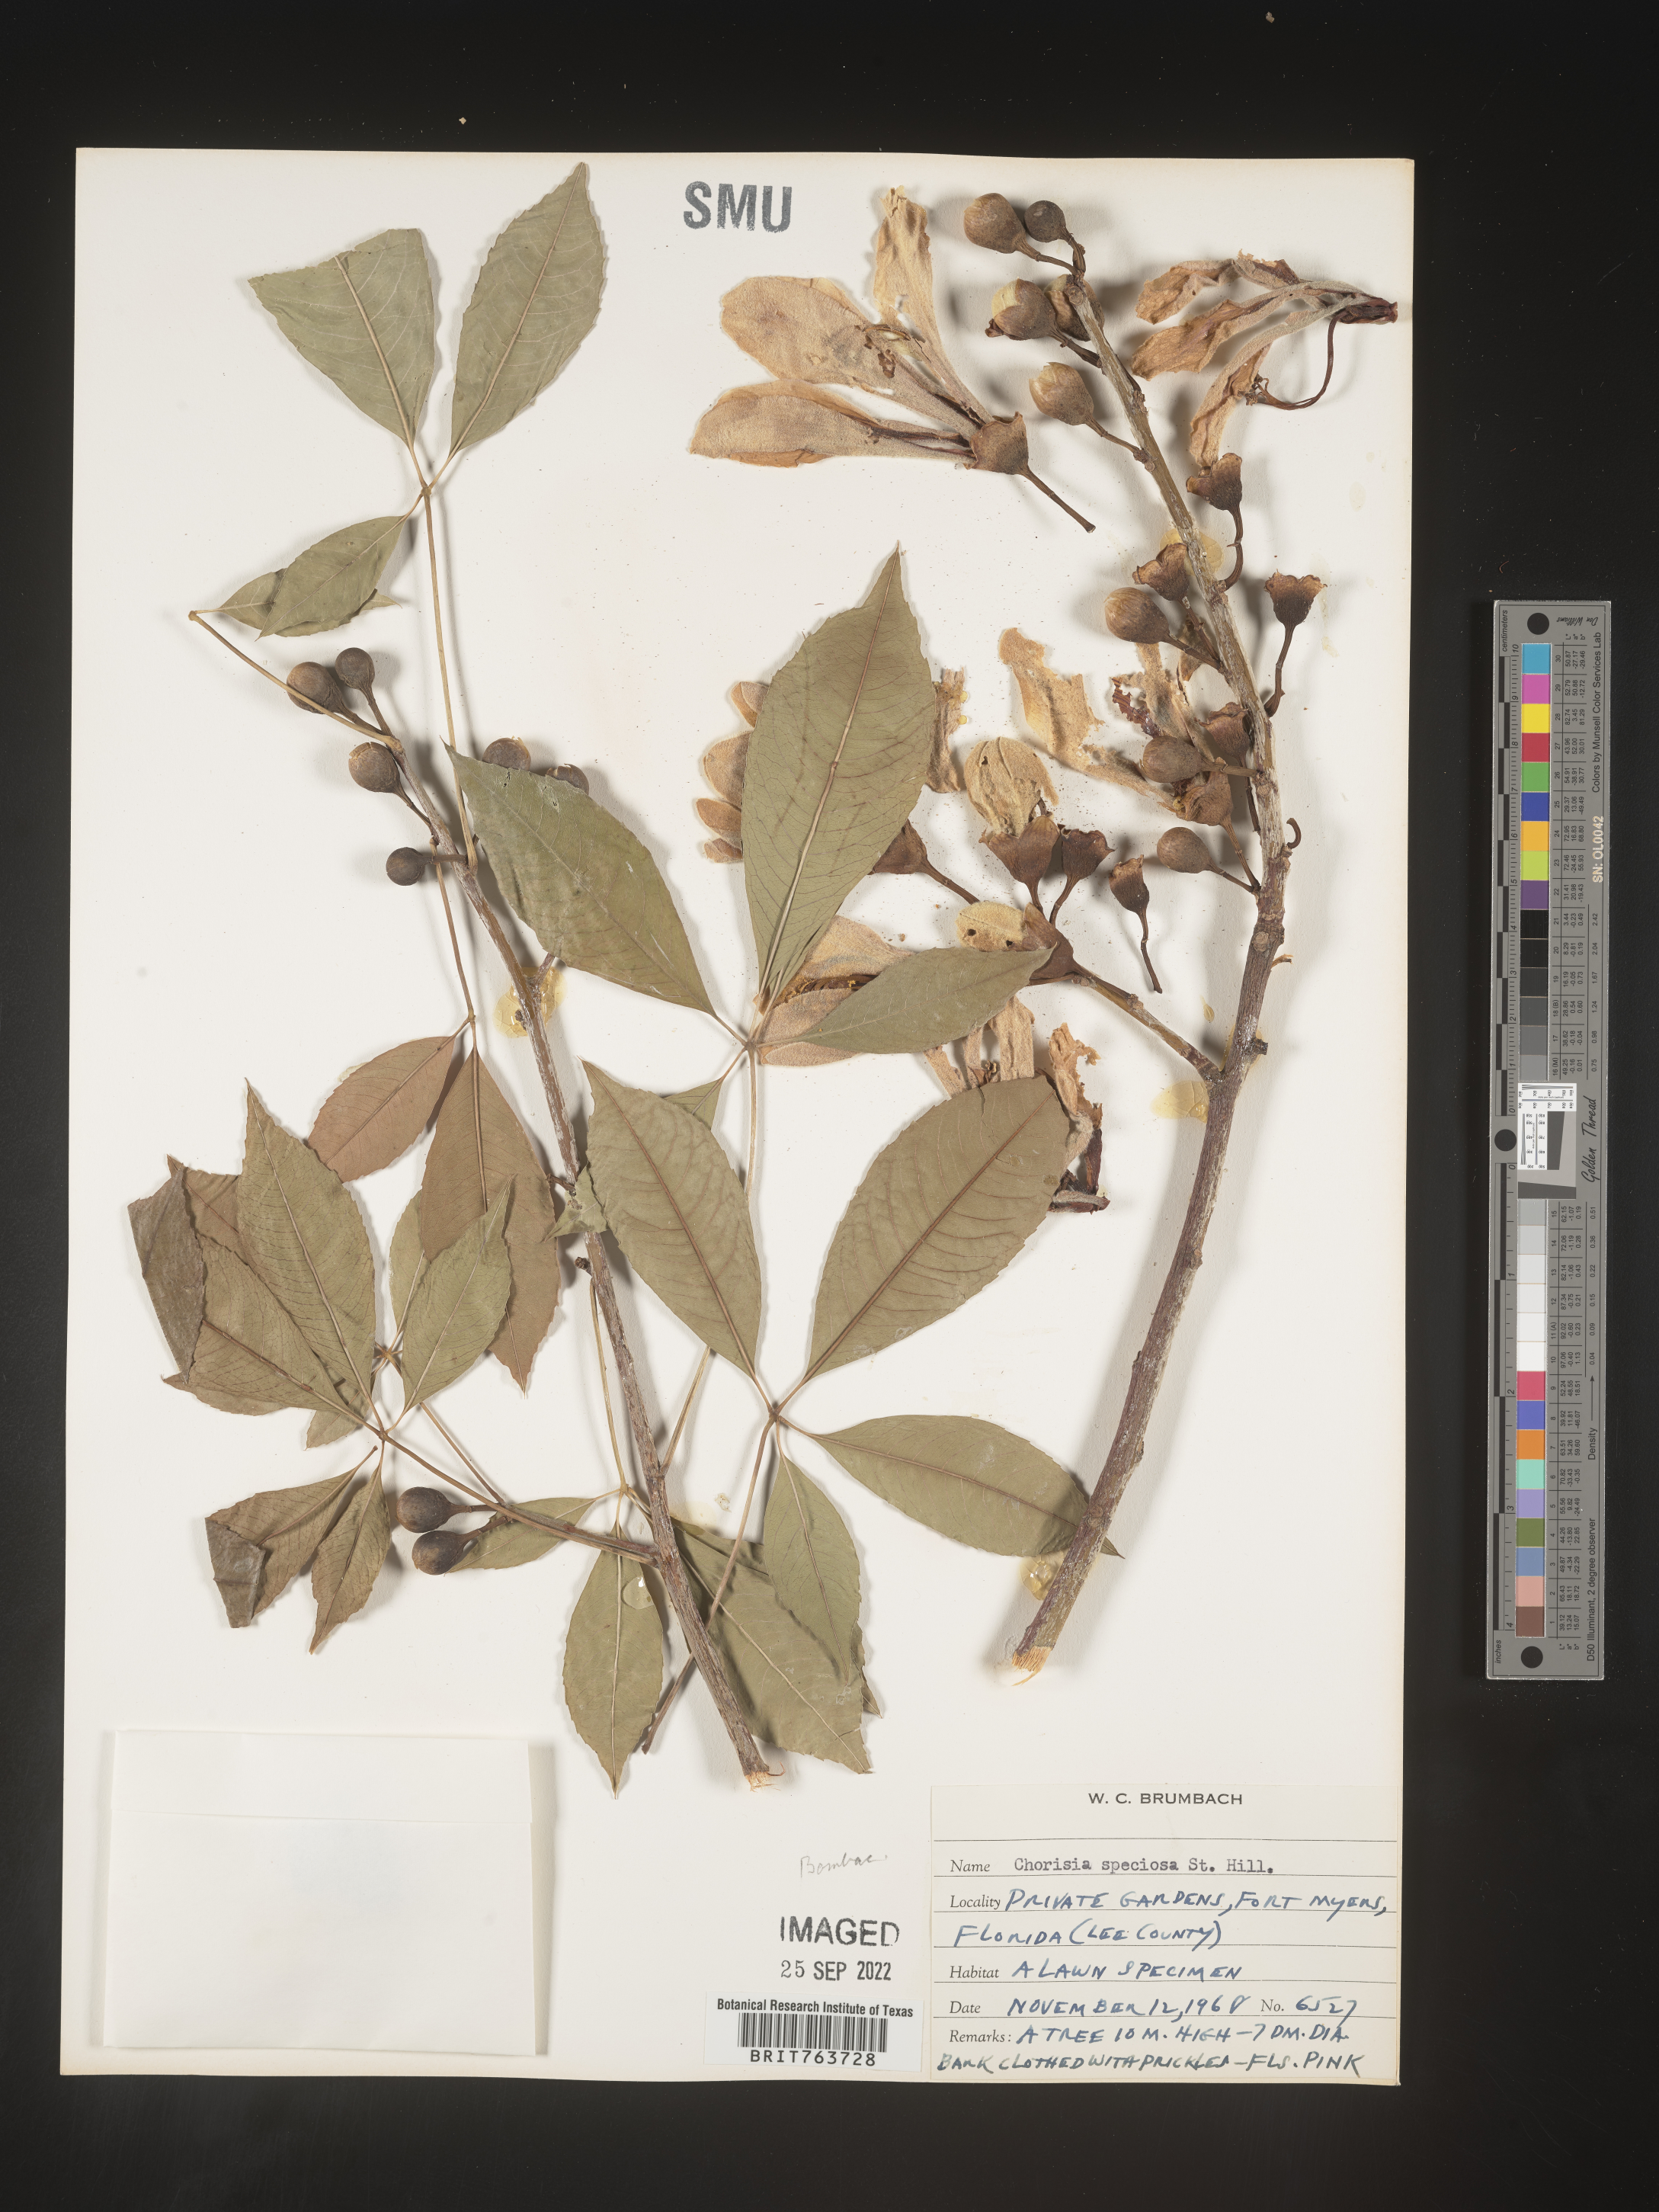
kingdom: Animalia
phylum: Arthropoda
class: Insecta
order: Blattodea
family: Ectobiidae
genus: Chorisia
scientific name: Chorisia
